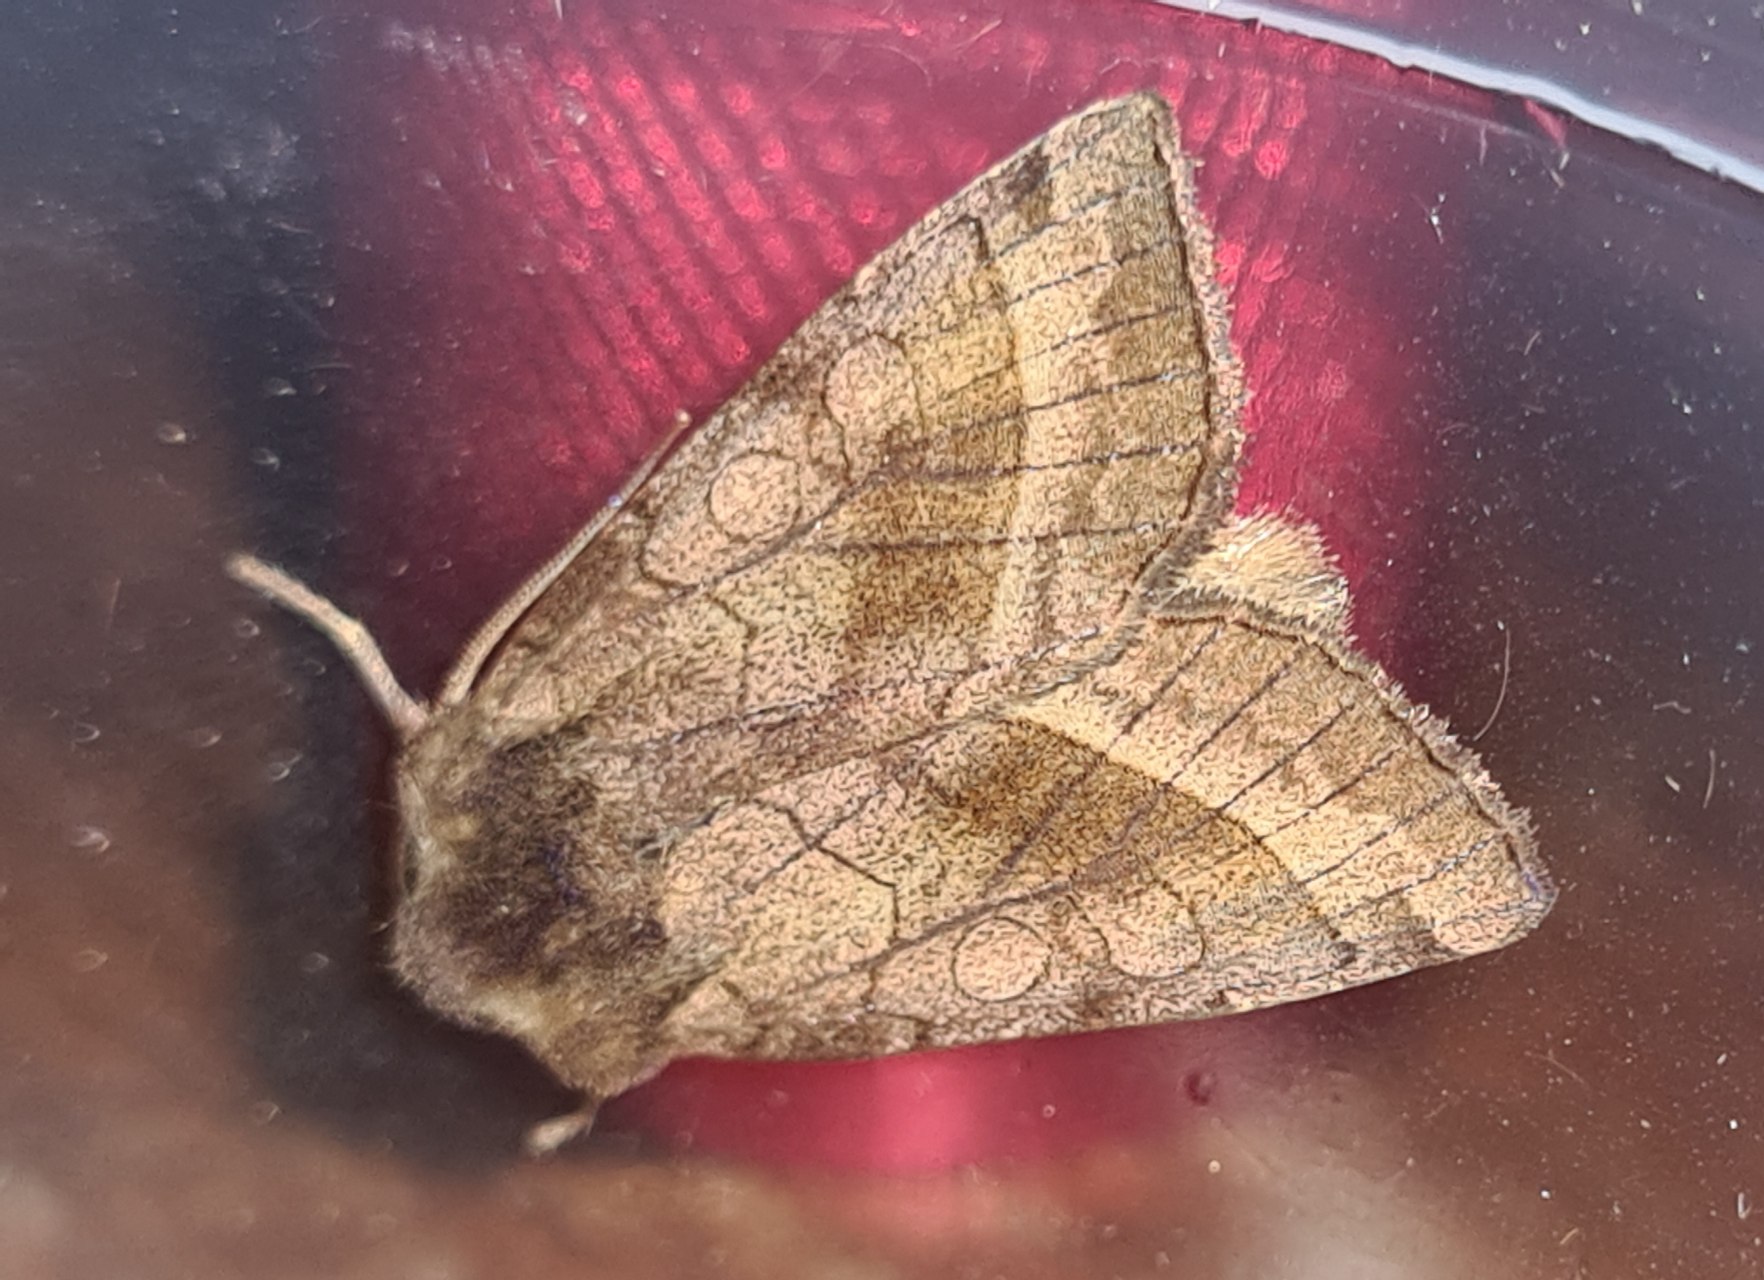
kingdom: Animalia
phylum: Arthropoda
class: Insecta
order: Lepidoptera
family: Noctuidae
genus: Hydraecia
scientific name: Hydraecia micacea
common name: Kartoffelborer
